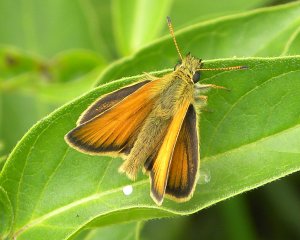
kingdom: Animalia
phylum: Arthropoda
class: Insecta
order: Lepidoptera
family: Hesperiidae
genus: Thymelicus
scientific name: Thymelicus lineola
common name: European Skipper
